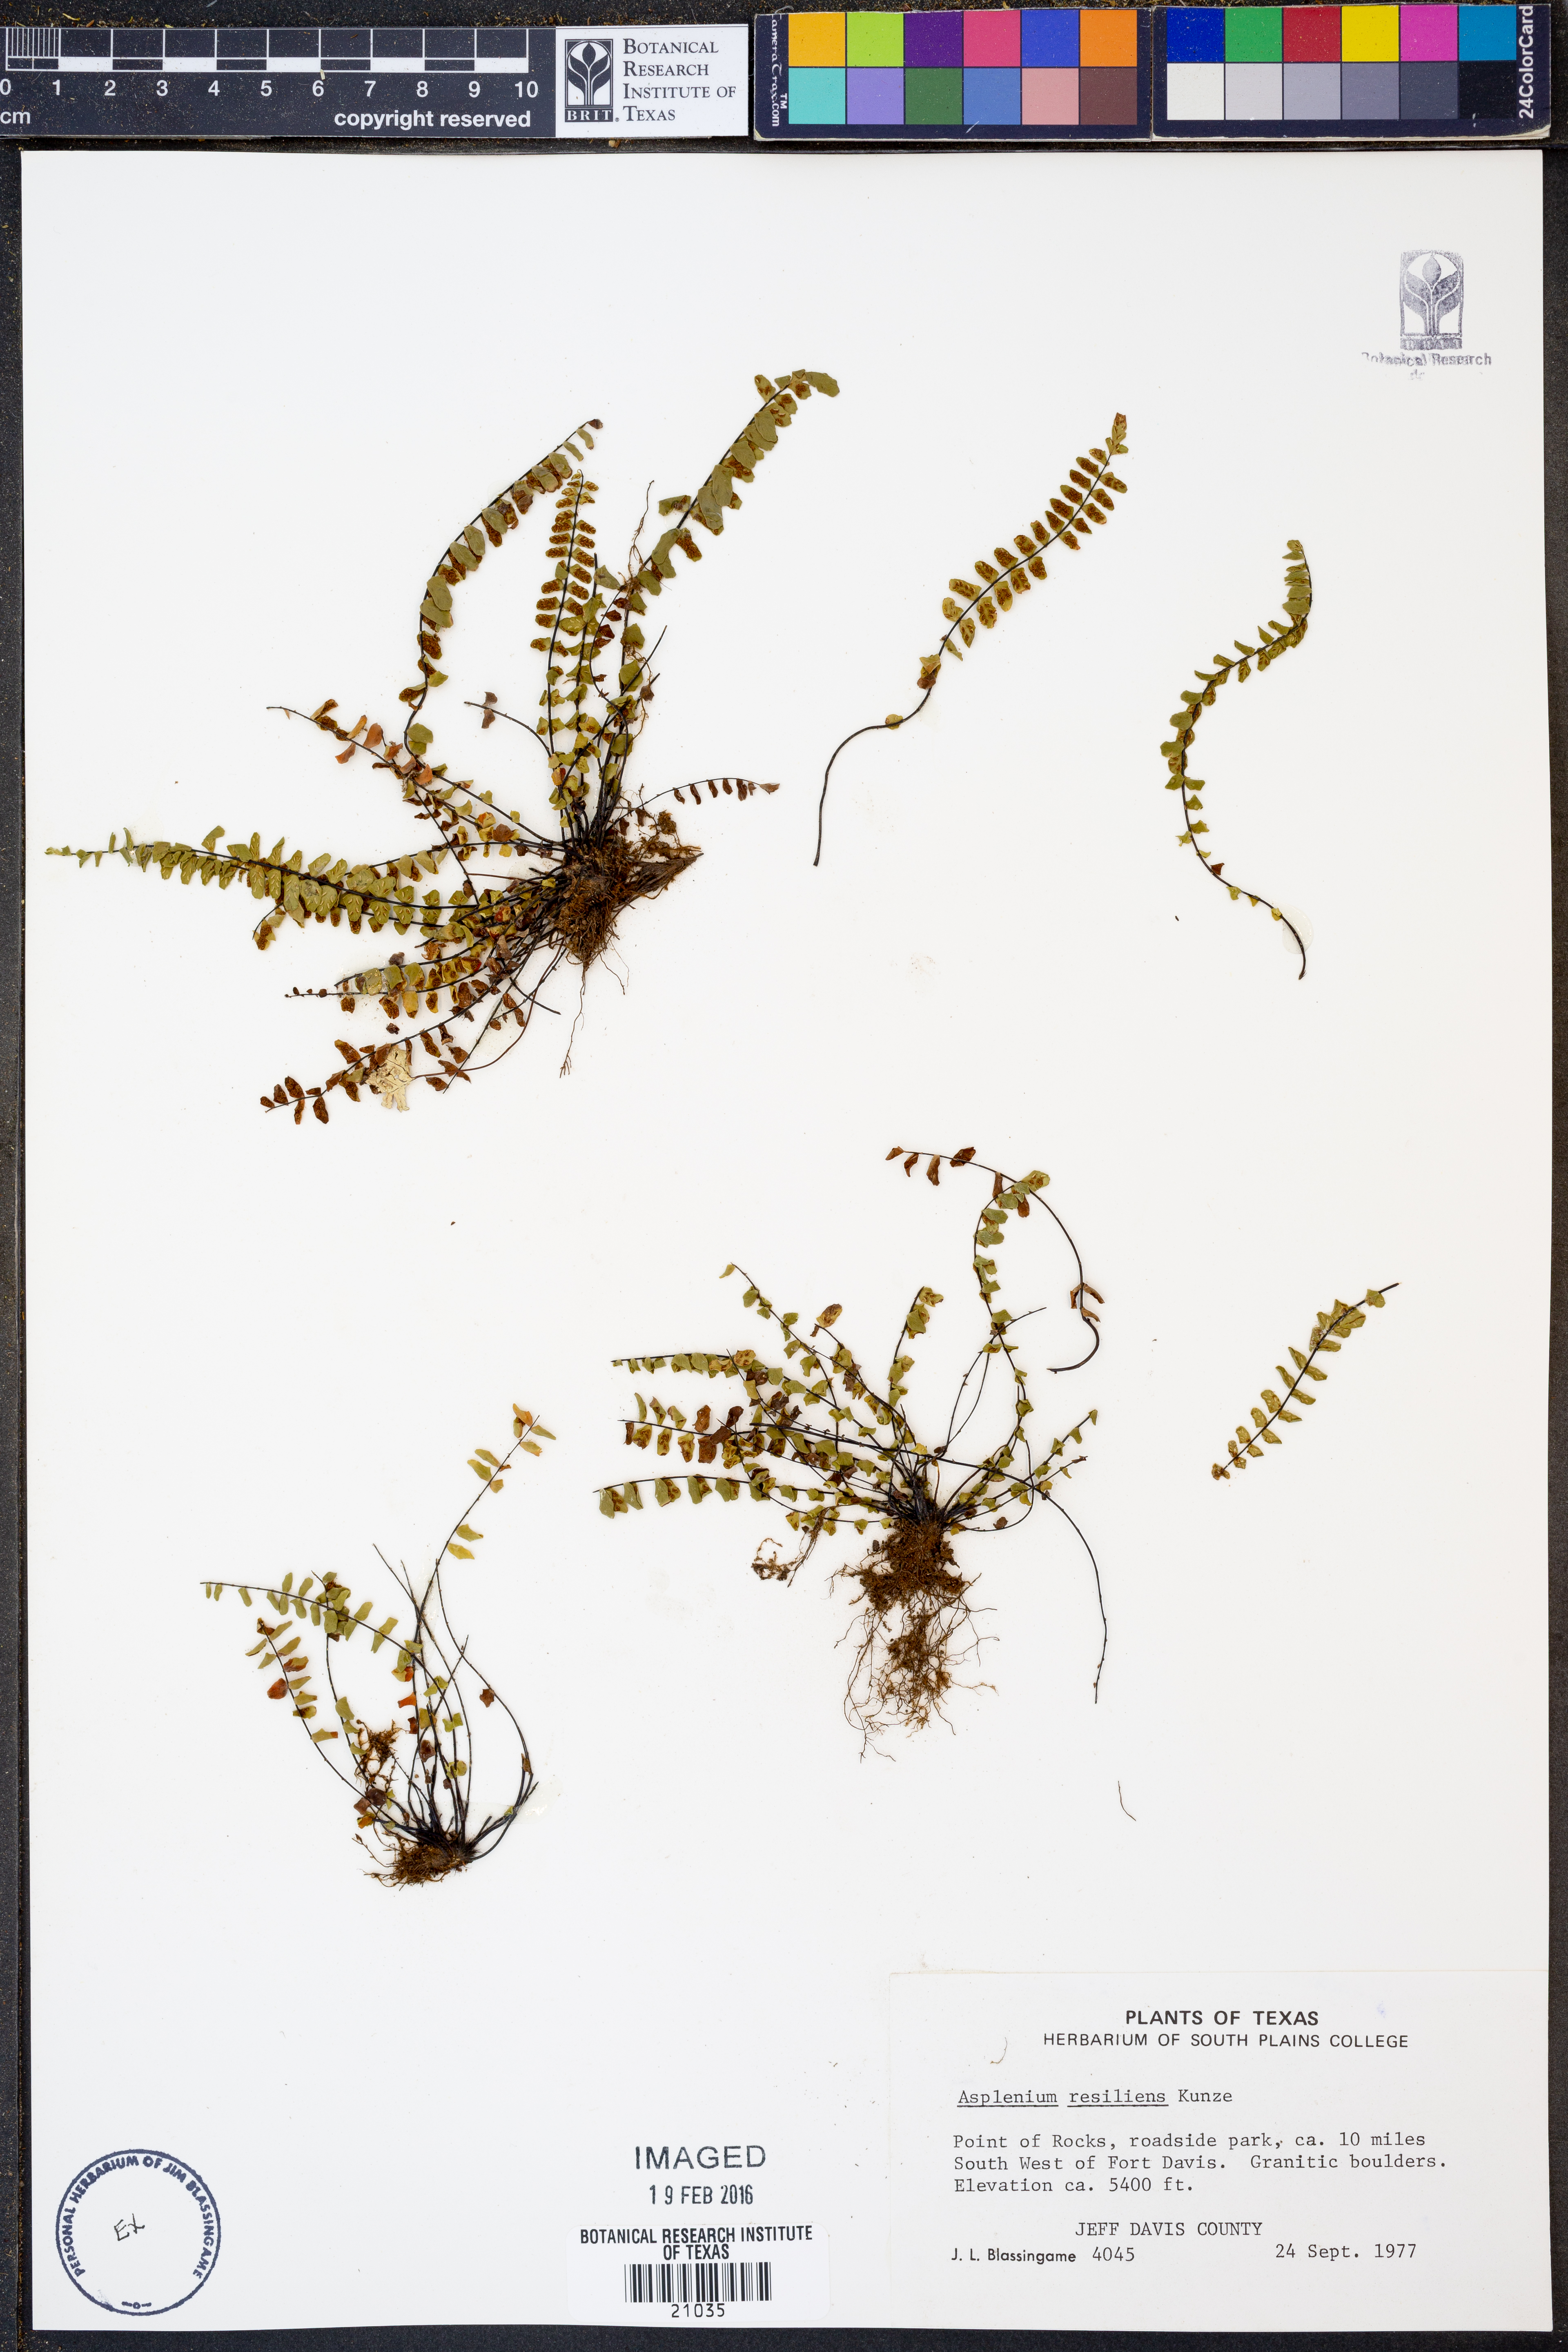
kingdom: Plantae
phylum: Tracheophyta
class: Polypodiopsida
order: Polypodiales
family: Aspleniaceae
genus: Asplenium
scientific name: Asplenium resiliens
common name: Blackstem spleenwort
